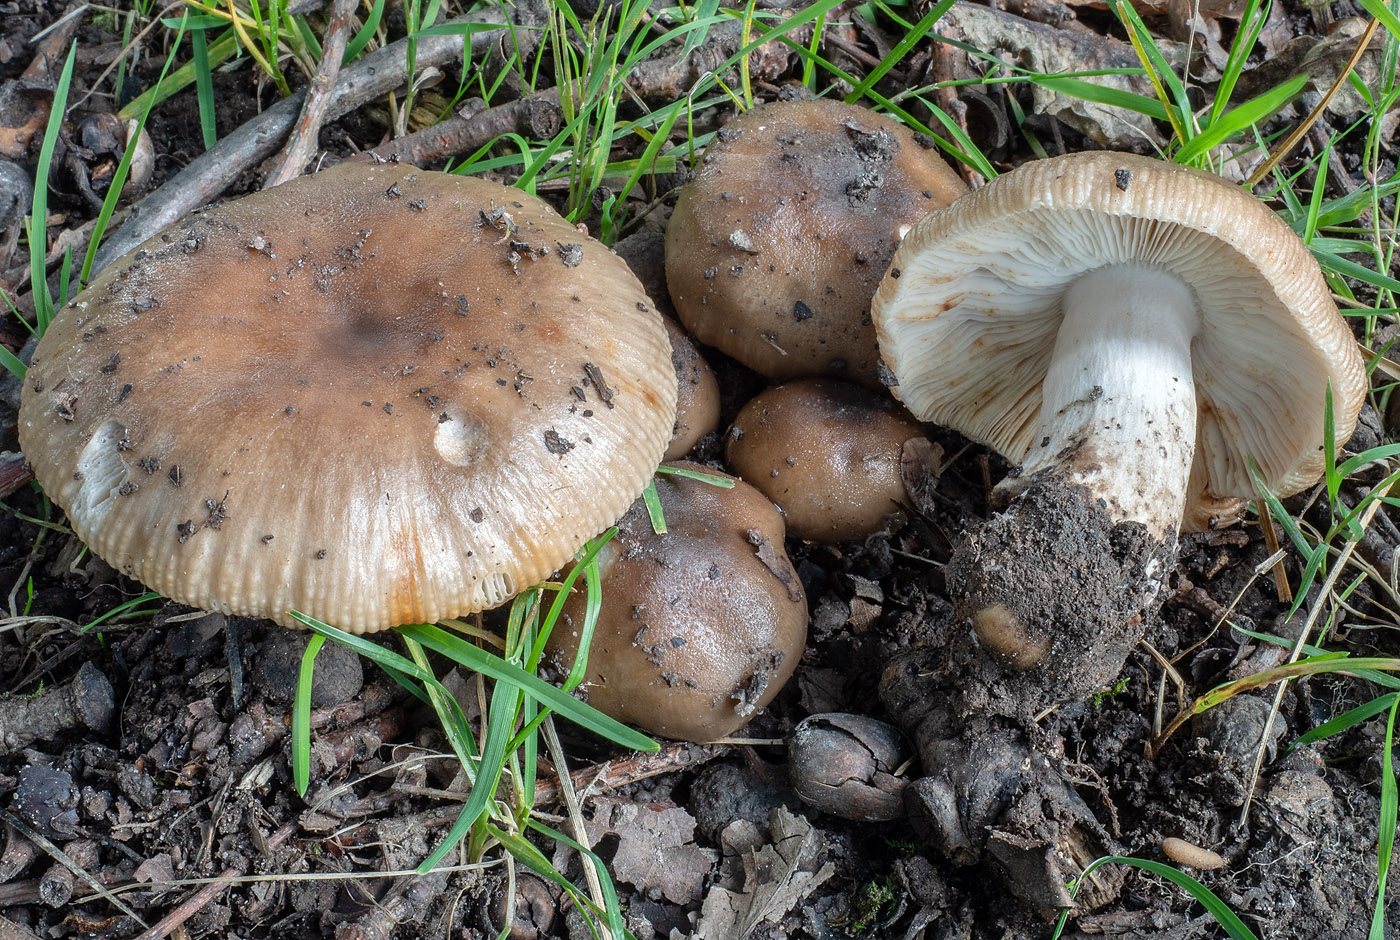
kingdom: Fungi
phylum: Basidiomycota
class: Agaricomycetes
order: Russulales
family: Russulaceae
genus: Russula
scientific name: Russula sororia
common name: brun kam-skørhat
